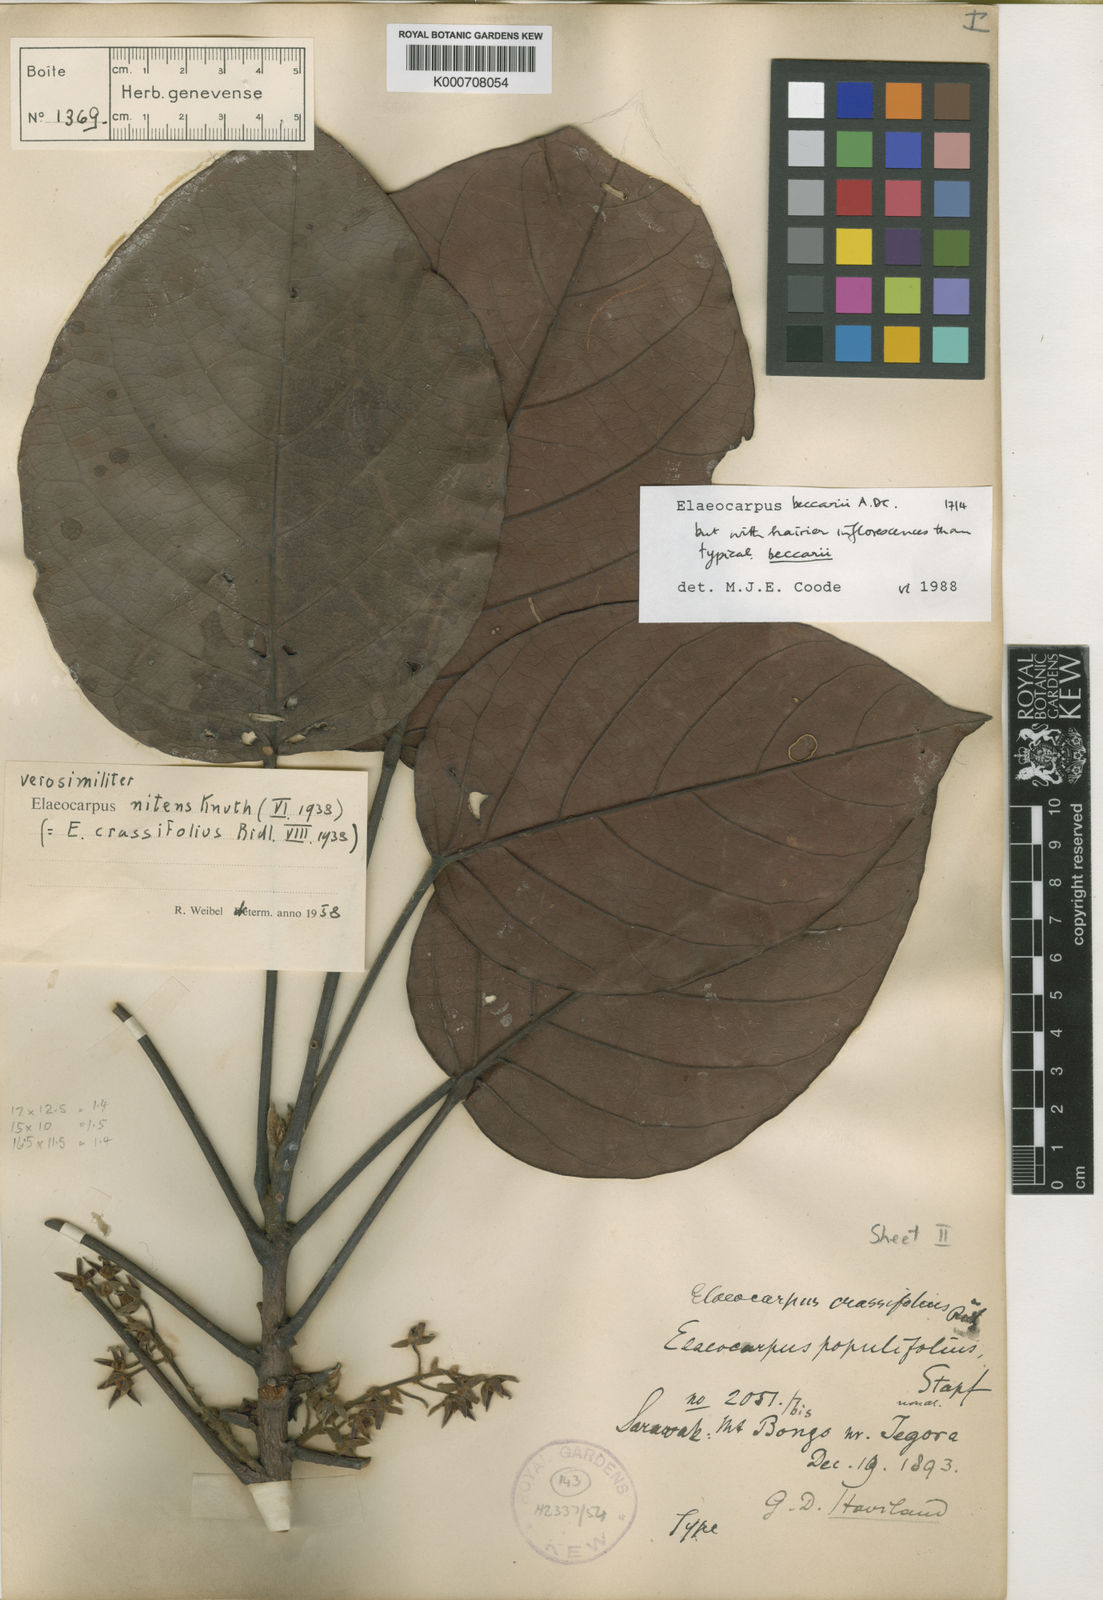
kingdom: Plantae
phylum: Tracheophyta
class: Magnoliopsida
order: Oxalidales
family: Elaeocarpaceae
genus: Elaeocarpus
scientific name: Elaeocarpus beccarii
